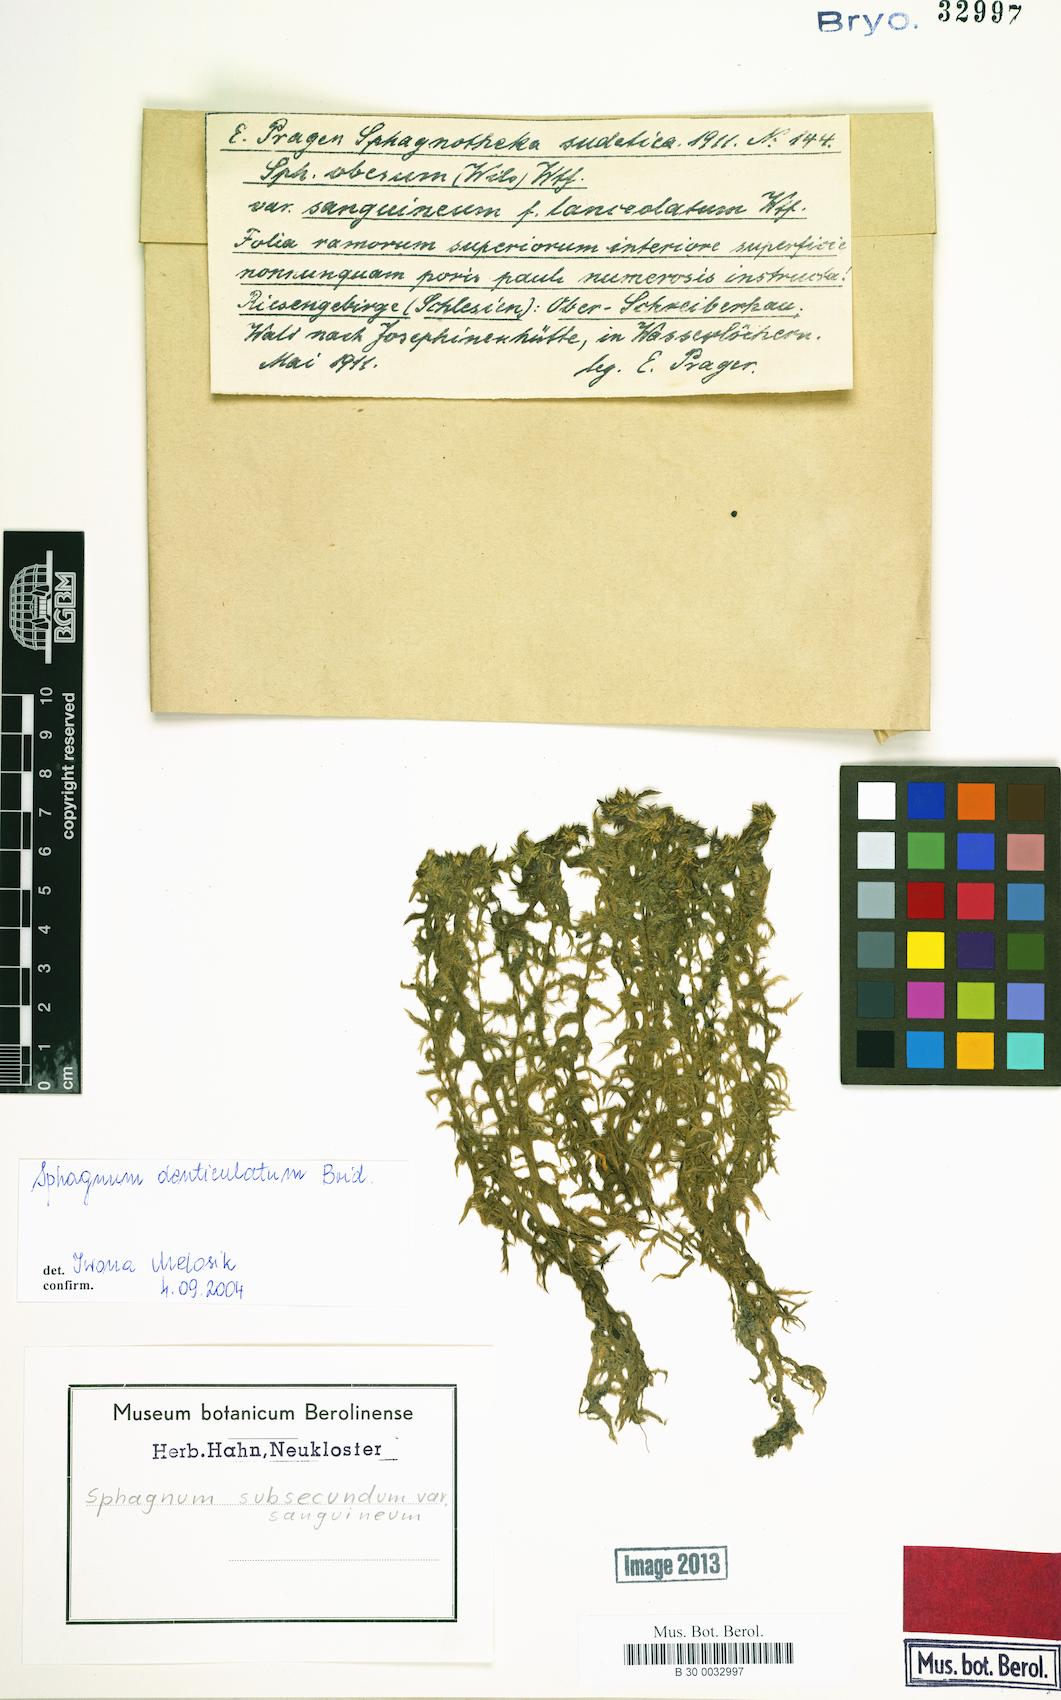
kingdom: Plantae
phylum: Bryophyta
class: Sphagnopsida
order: Sphagnales
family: Sphagnaceae
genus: Sphagnum
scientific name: Sphagnum denticulatum
